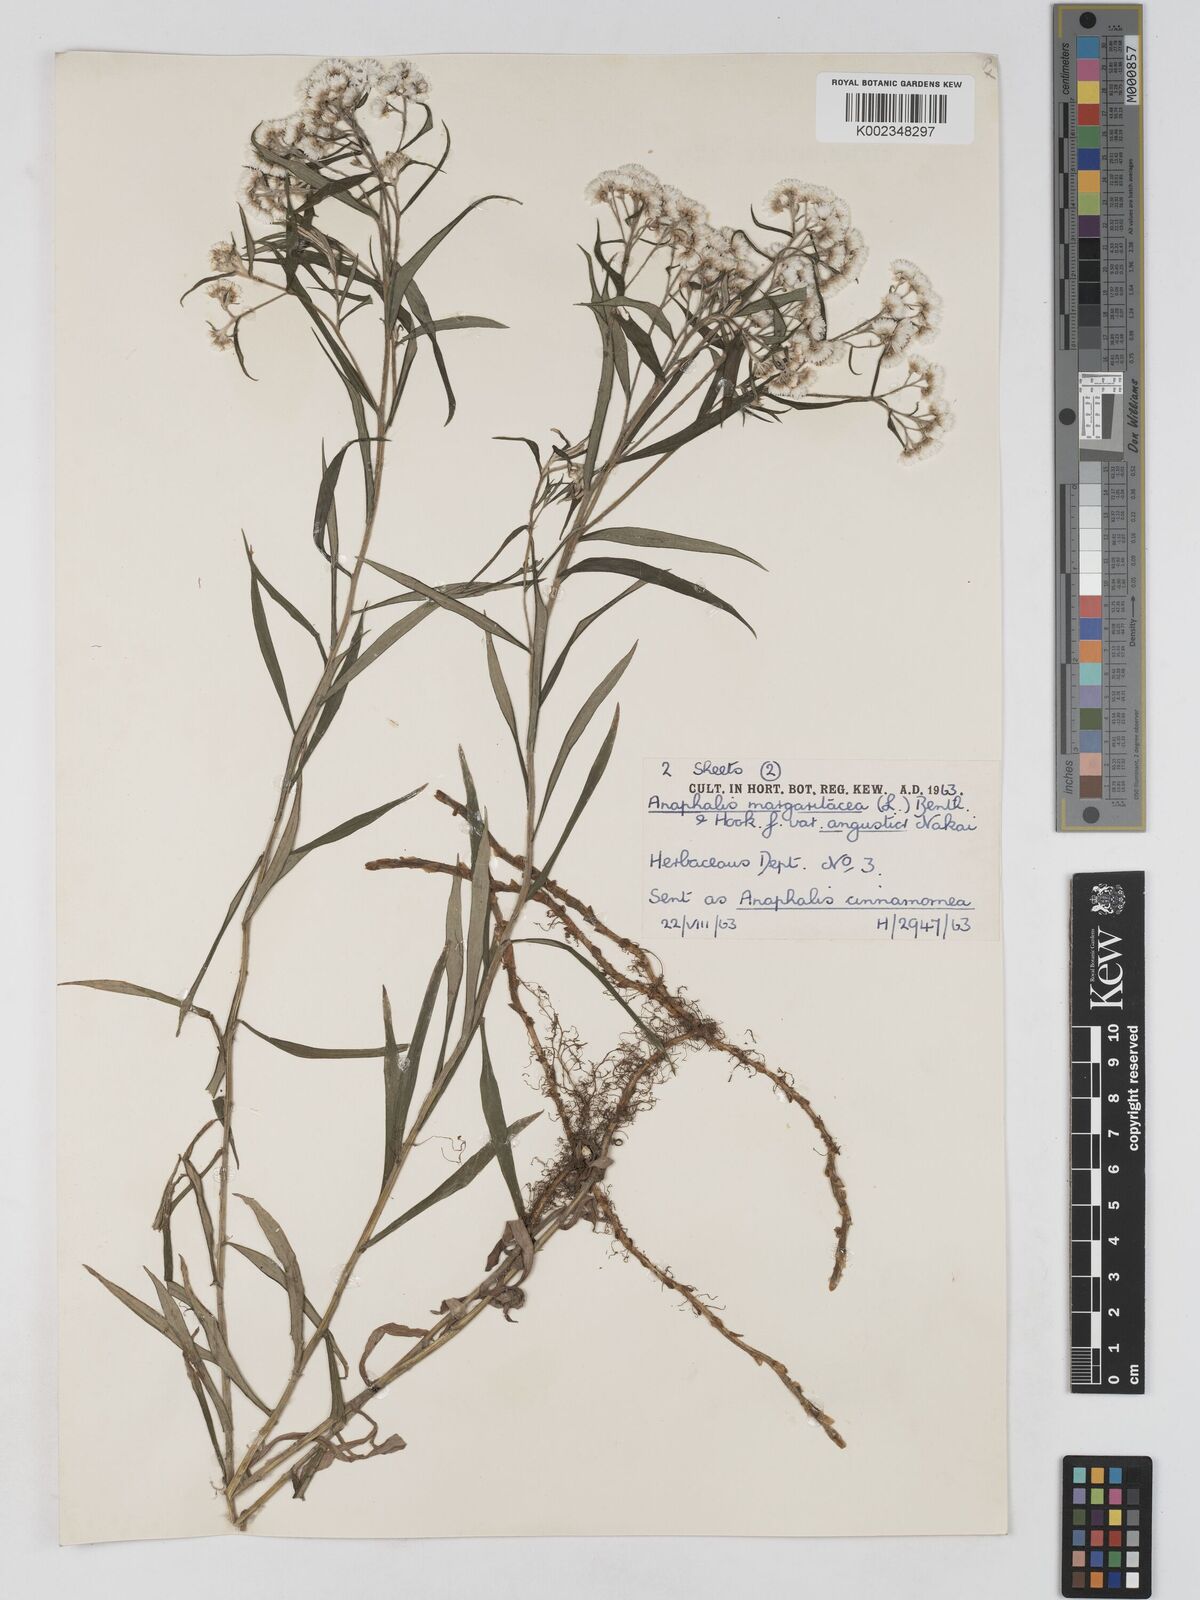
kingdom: Plantae
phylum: Tracheophyta
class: Magnoliopsida
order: Asterales
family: Asteraceae
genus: Anaphalis
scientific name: Anaphalis margaritacea
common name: Pearly everlasting
